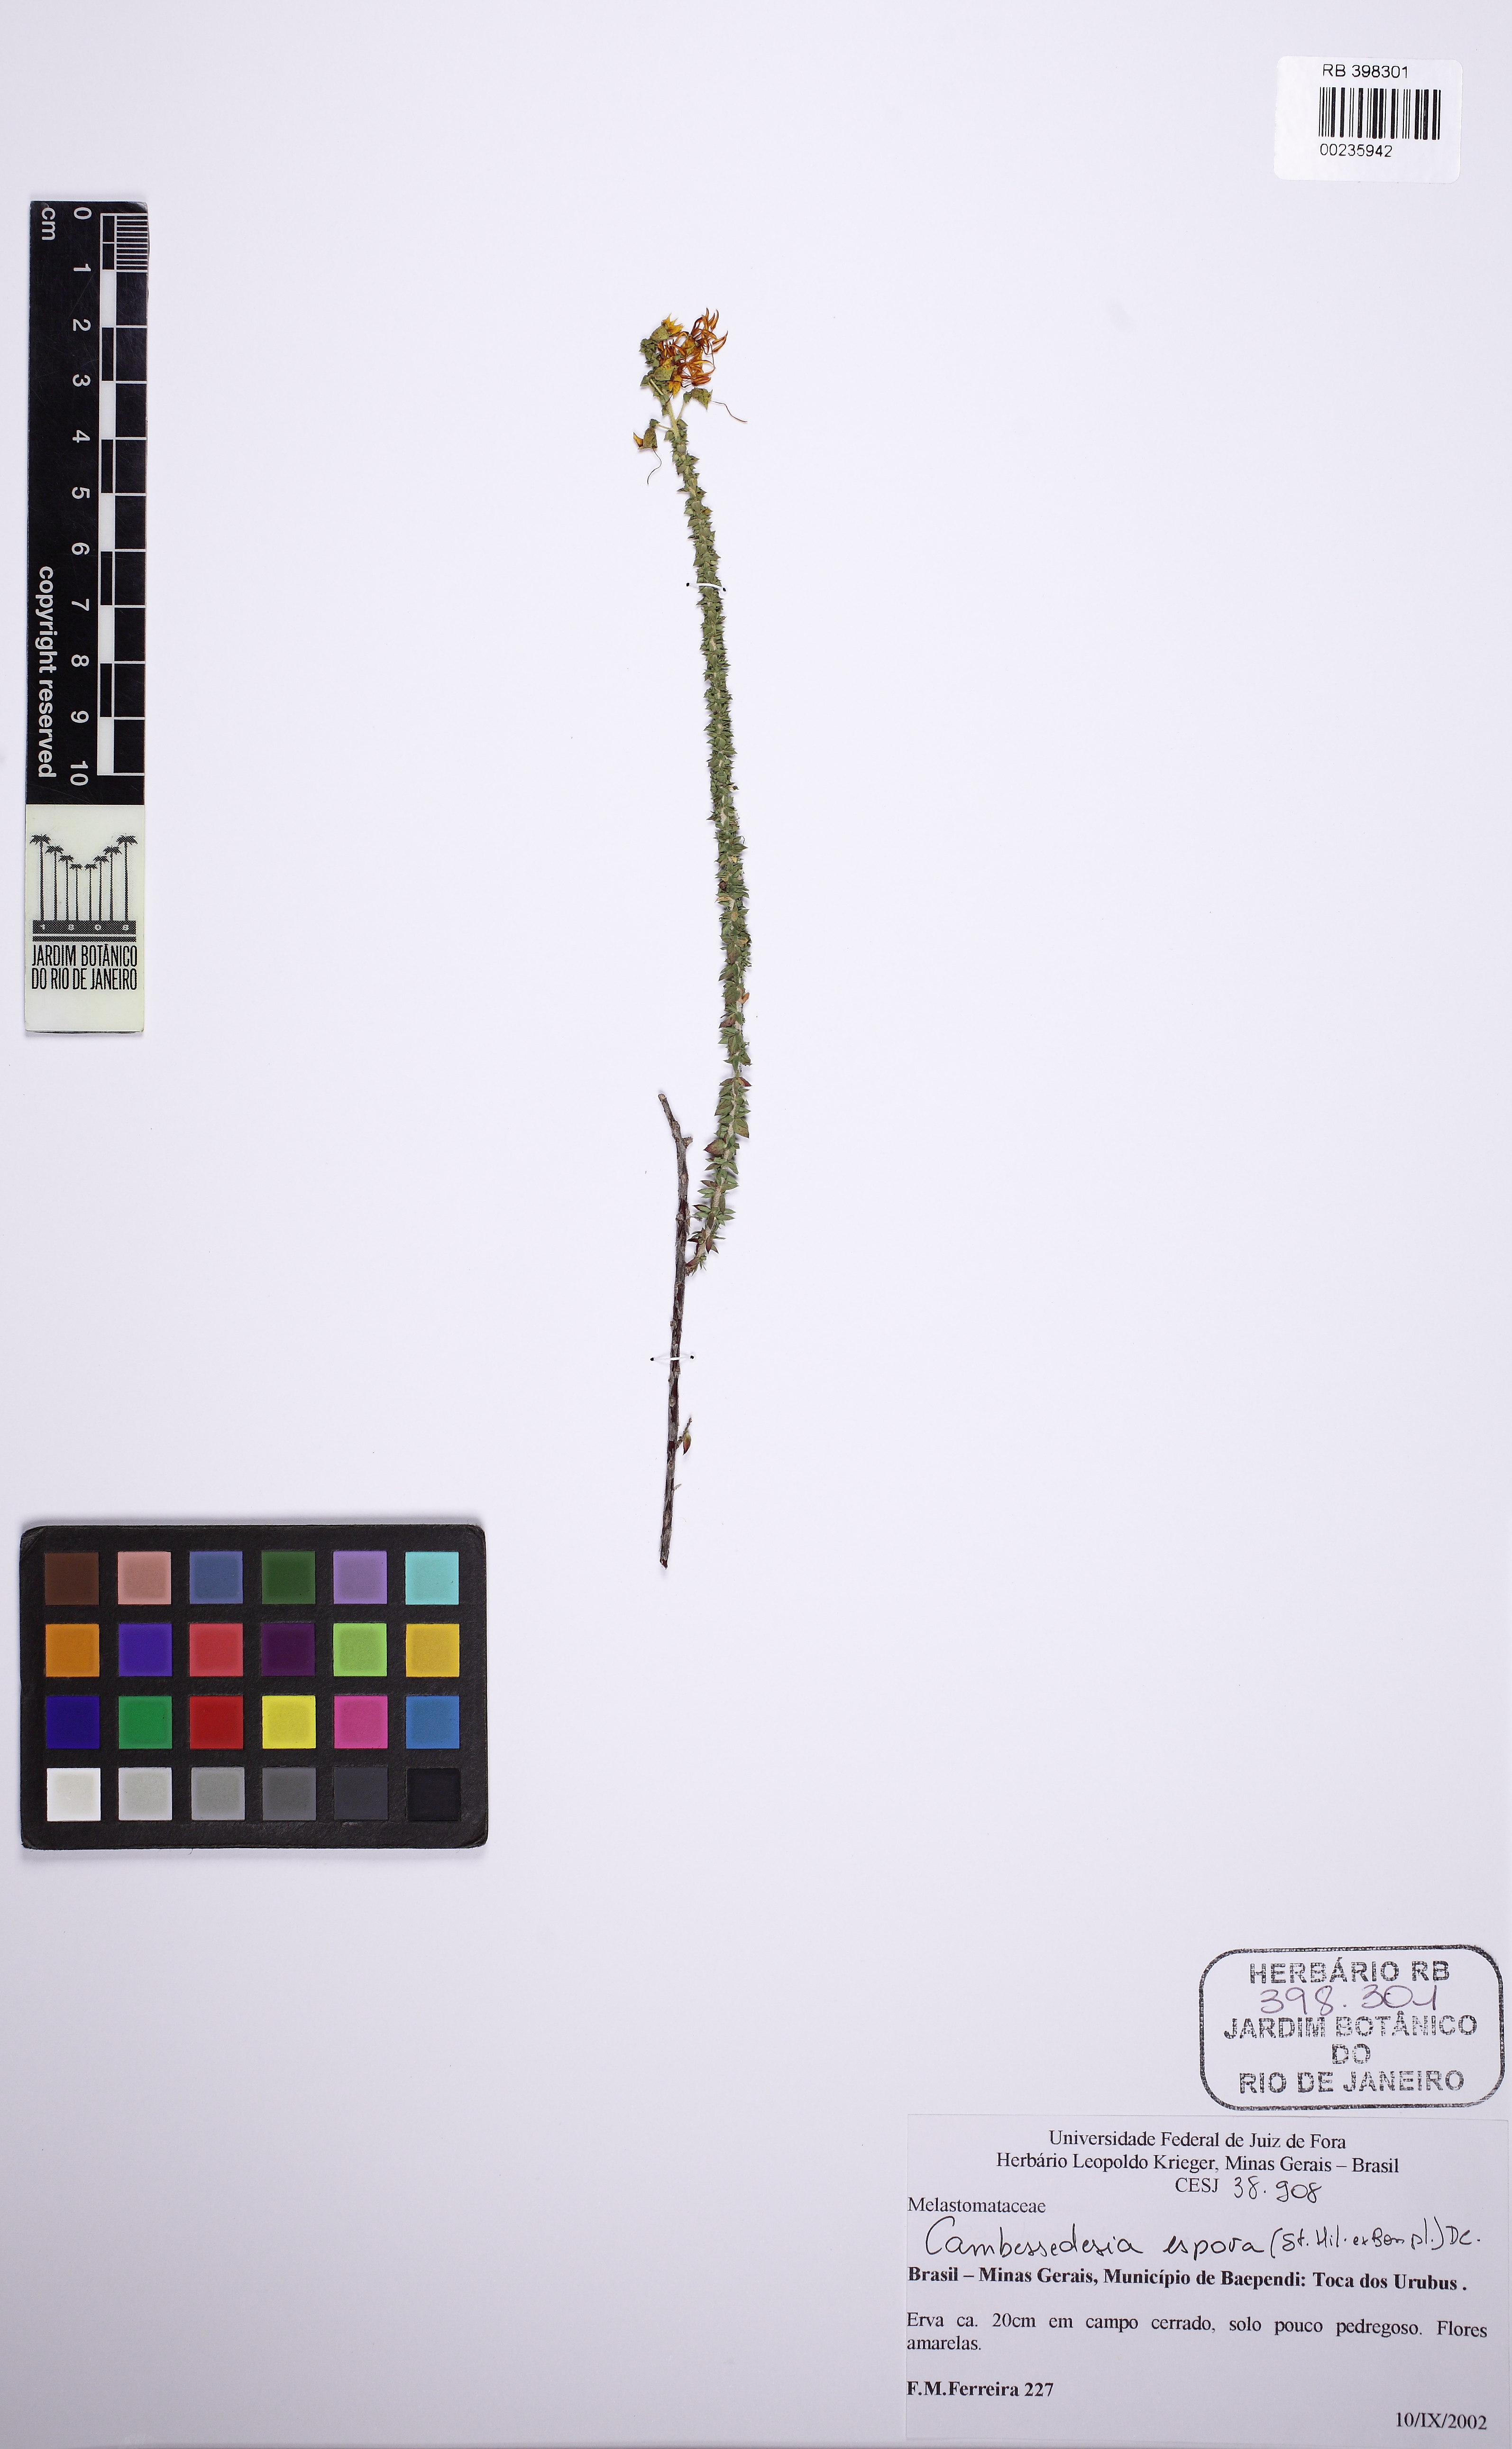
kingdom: Plantae
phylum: Tracheophyta
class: Magnoliopsida
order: Myrtales
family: Melastomataceae
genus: Cambessedesia
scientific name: Cambessedesia espora
